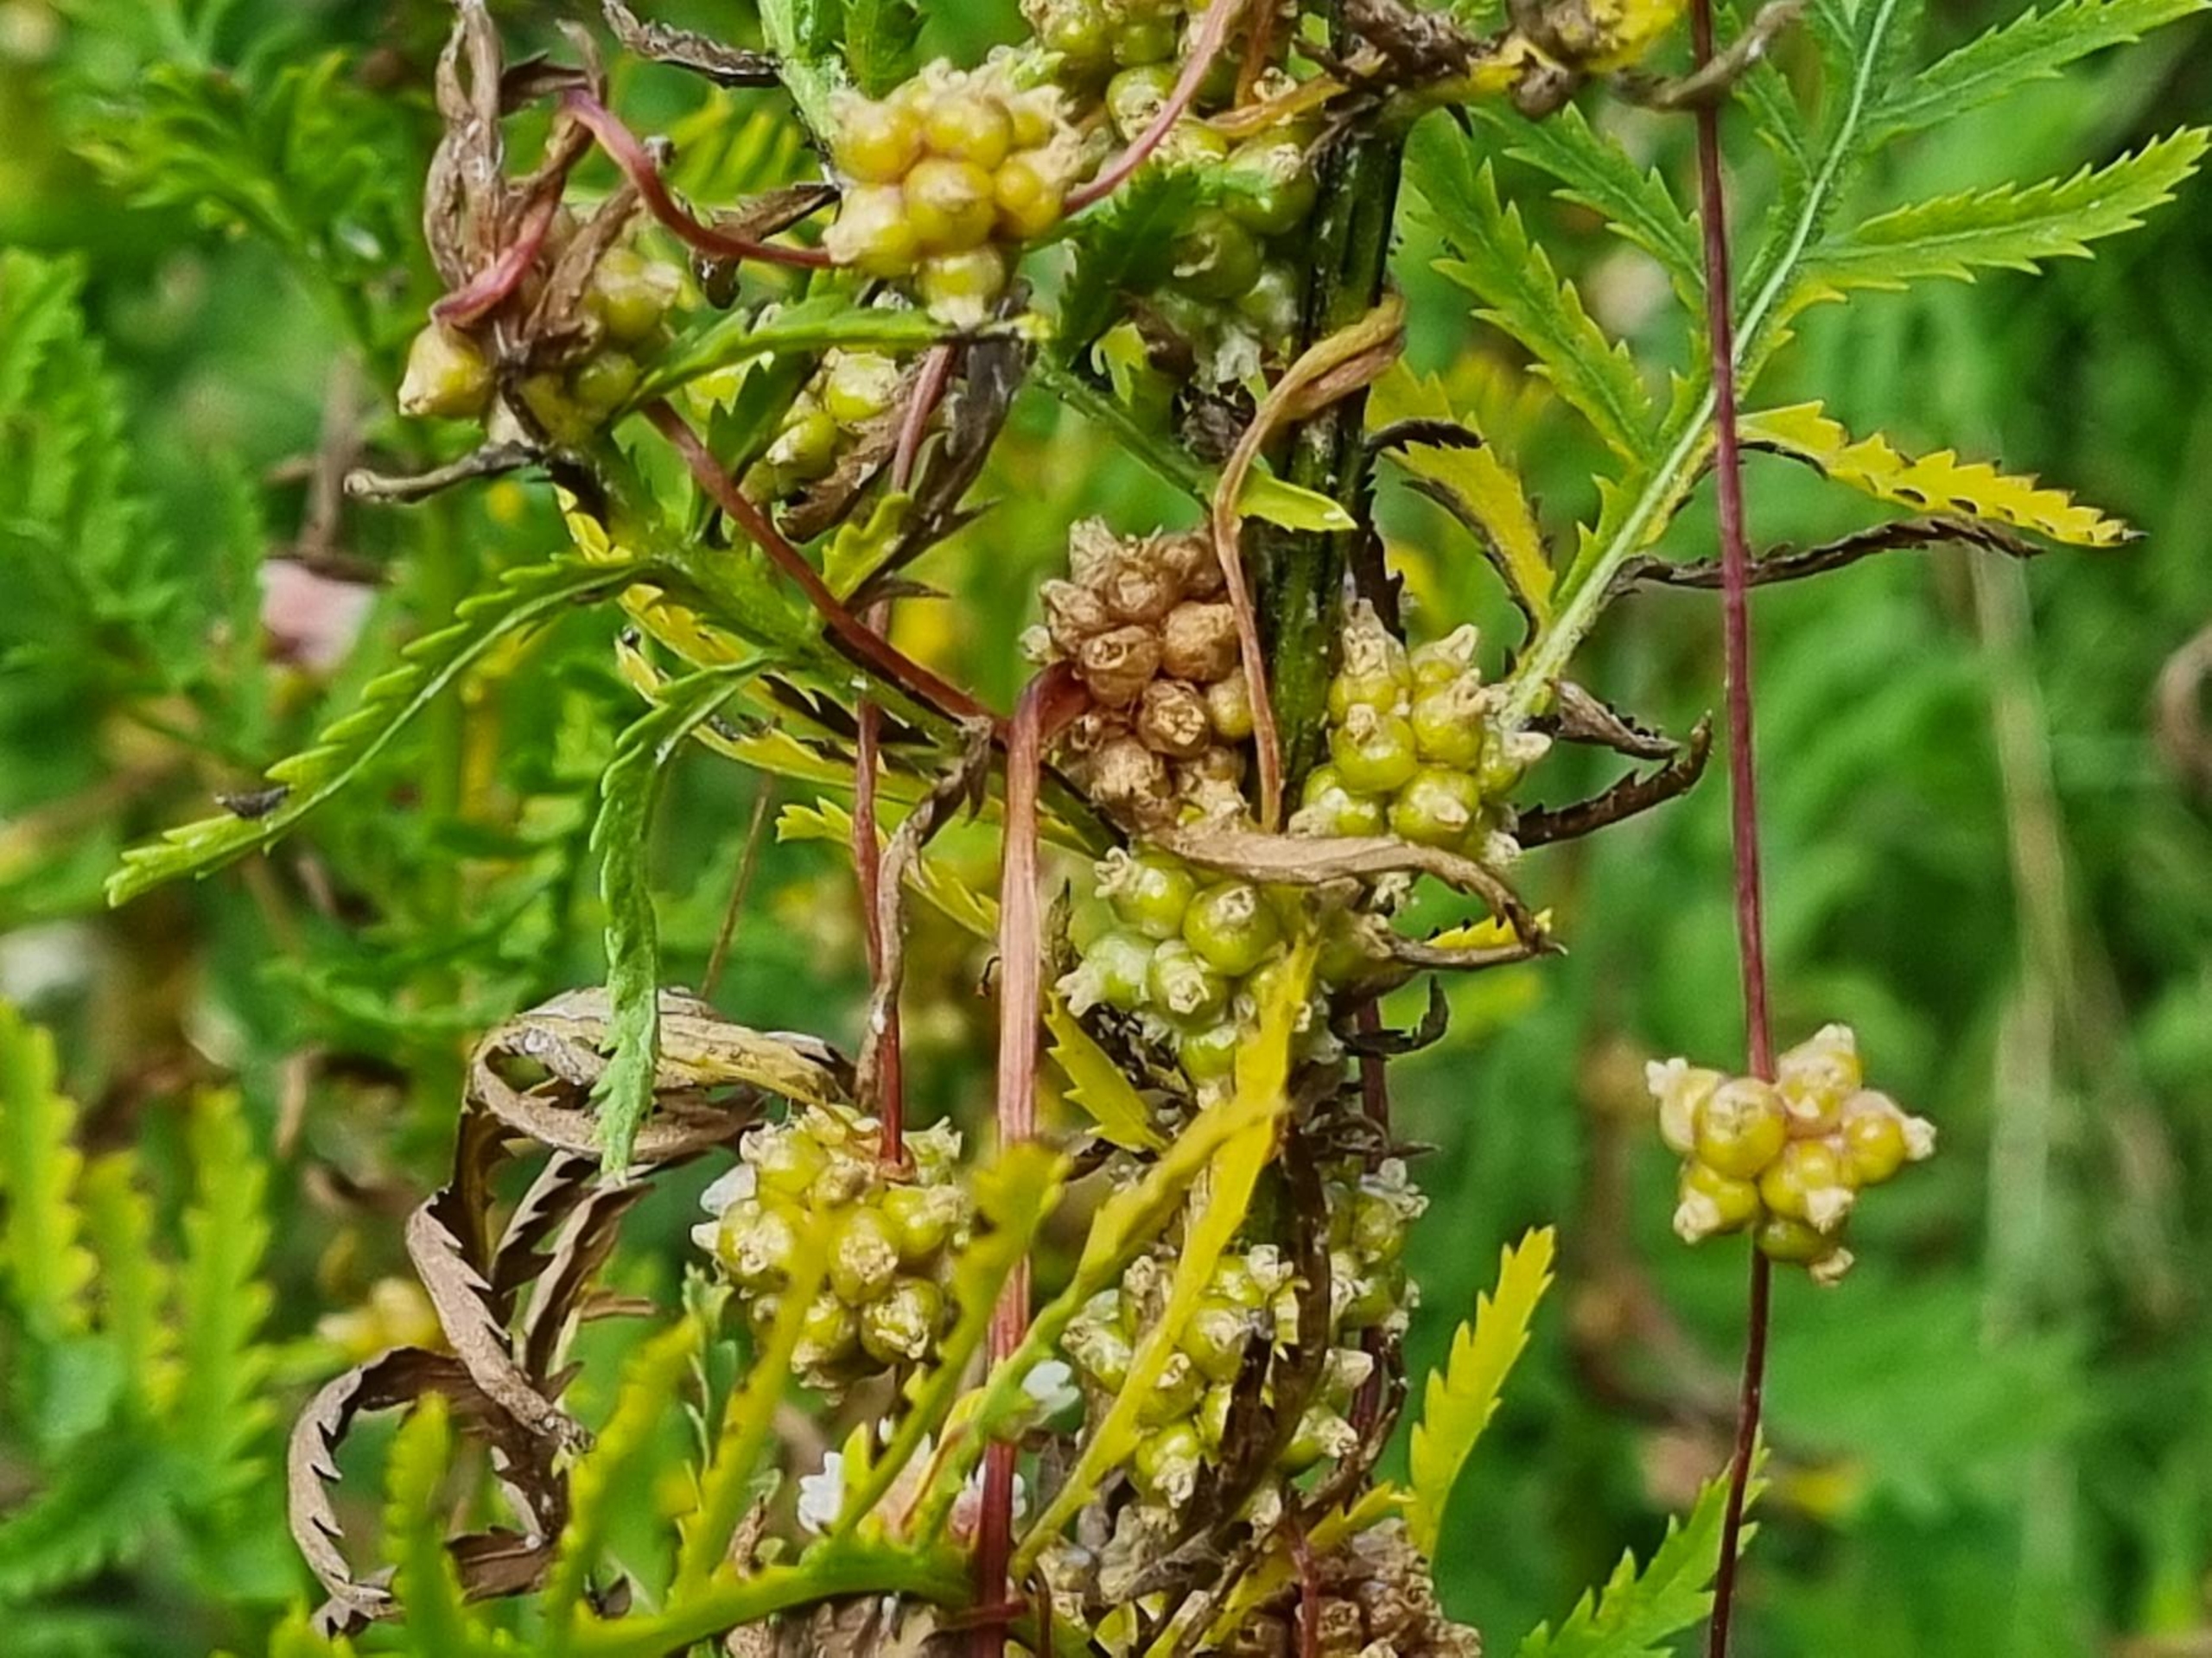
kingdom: Plantae
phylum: Tracheophyta
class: Magnoliopsida
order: Solanales
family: Convolvulaceae
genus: Cuscuta
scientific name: Cuscuta europaea
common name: Nælde-silke
